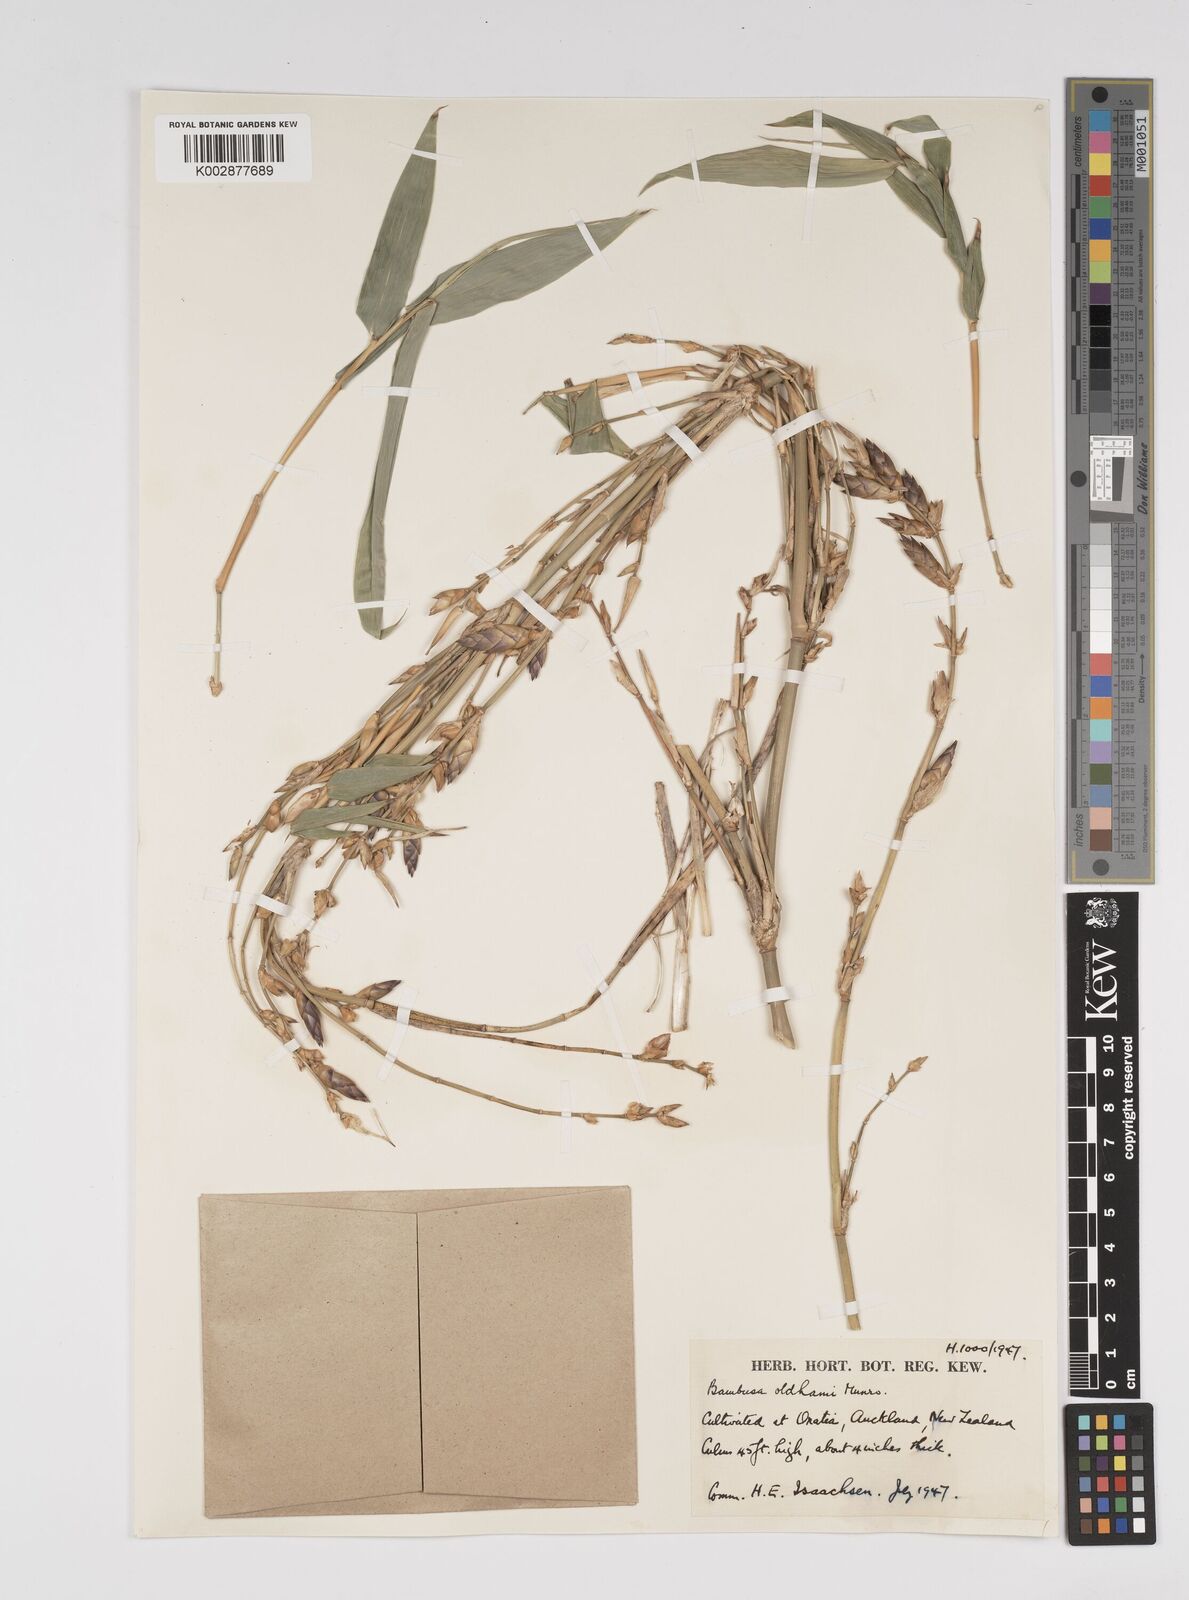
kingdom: Plantae
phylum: Tracheophyta
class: Liliopsida
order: Poales
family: Poaceae
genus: Bambusa
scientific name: Bambusa oldhamii
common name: Giant timber bamboo
